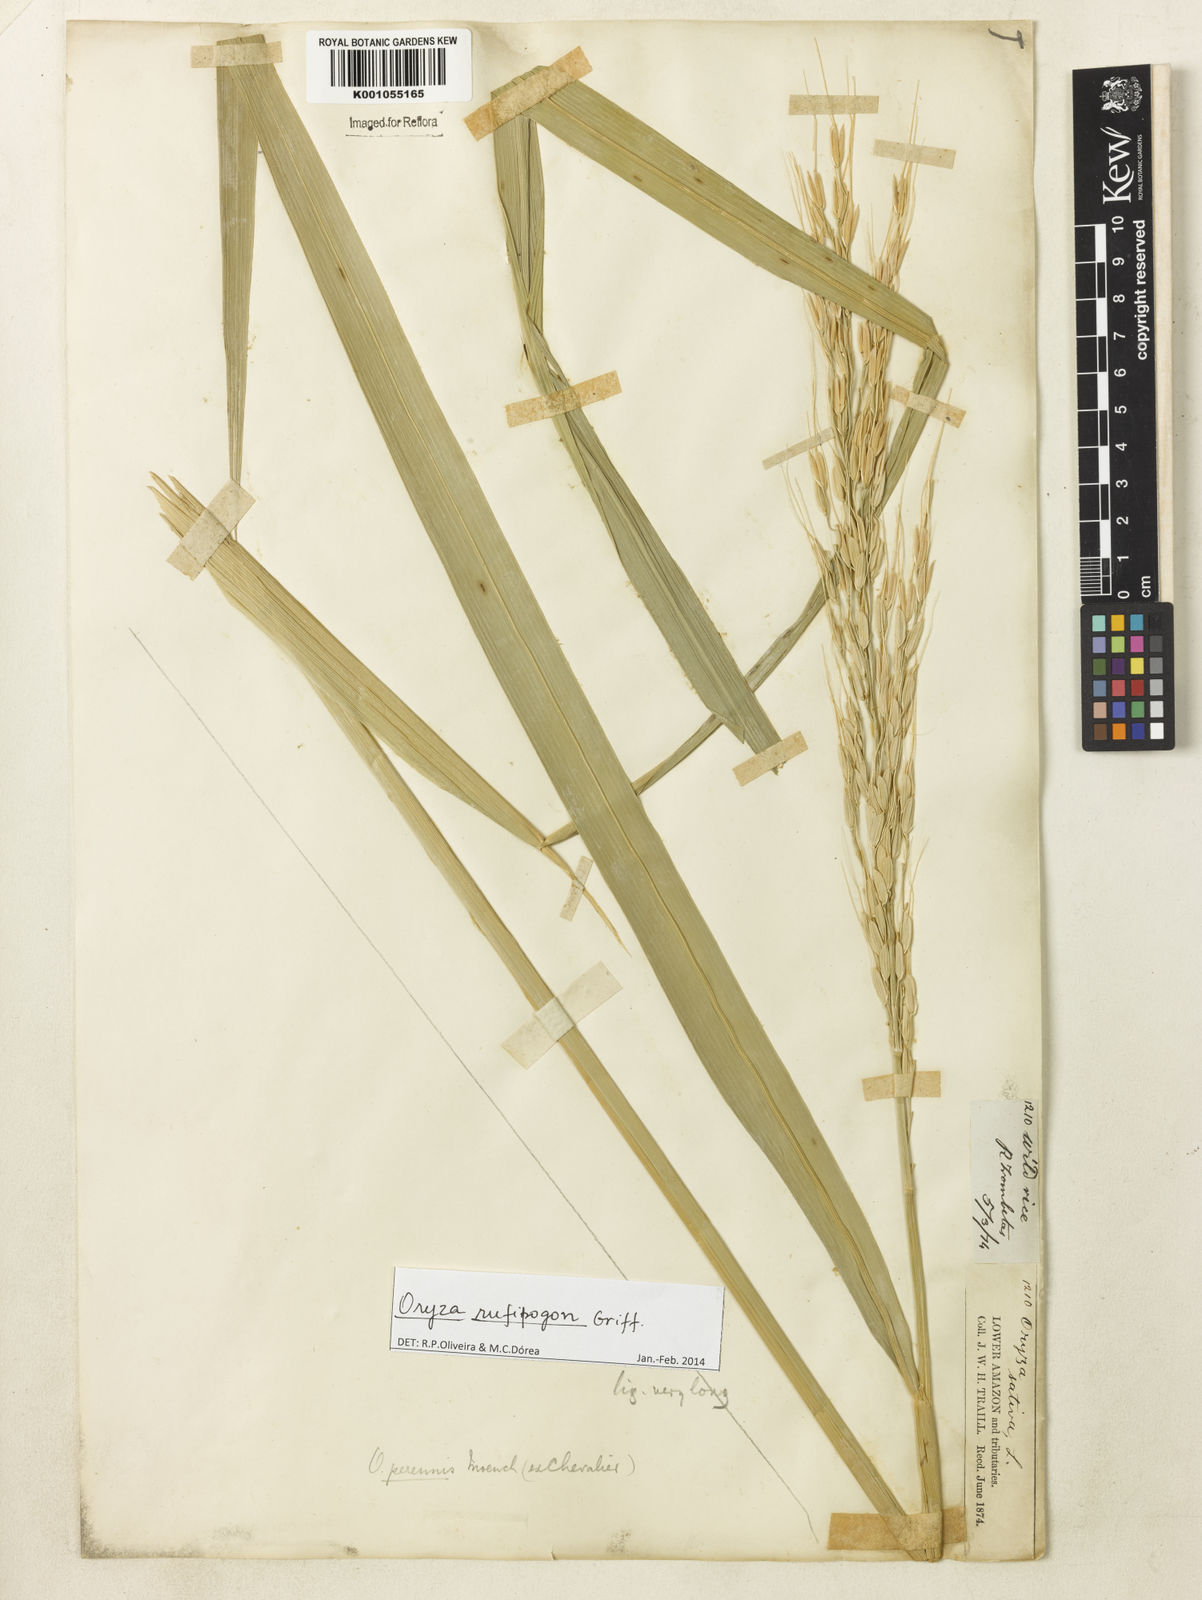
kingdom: Plantae
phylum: Tracheophyta
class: Liliopsida
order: Poales
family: Poaceae
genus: Oryza
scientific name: Oryza rufipogon
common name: Red rice
